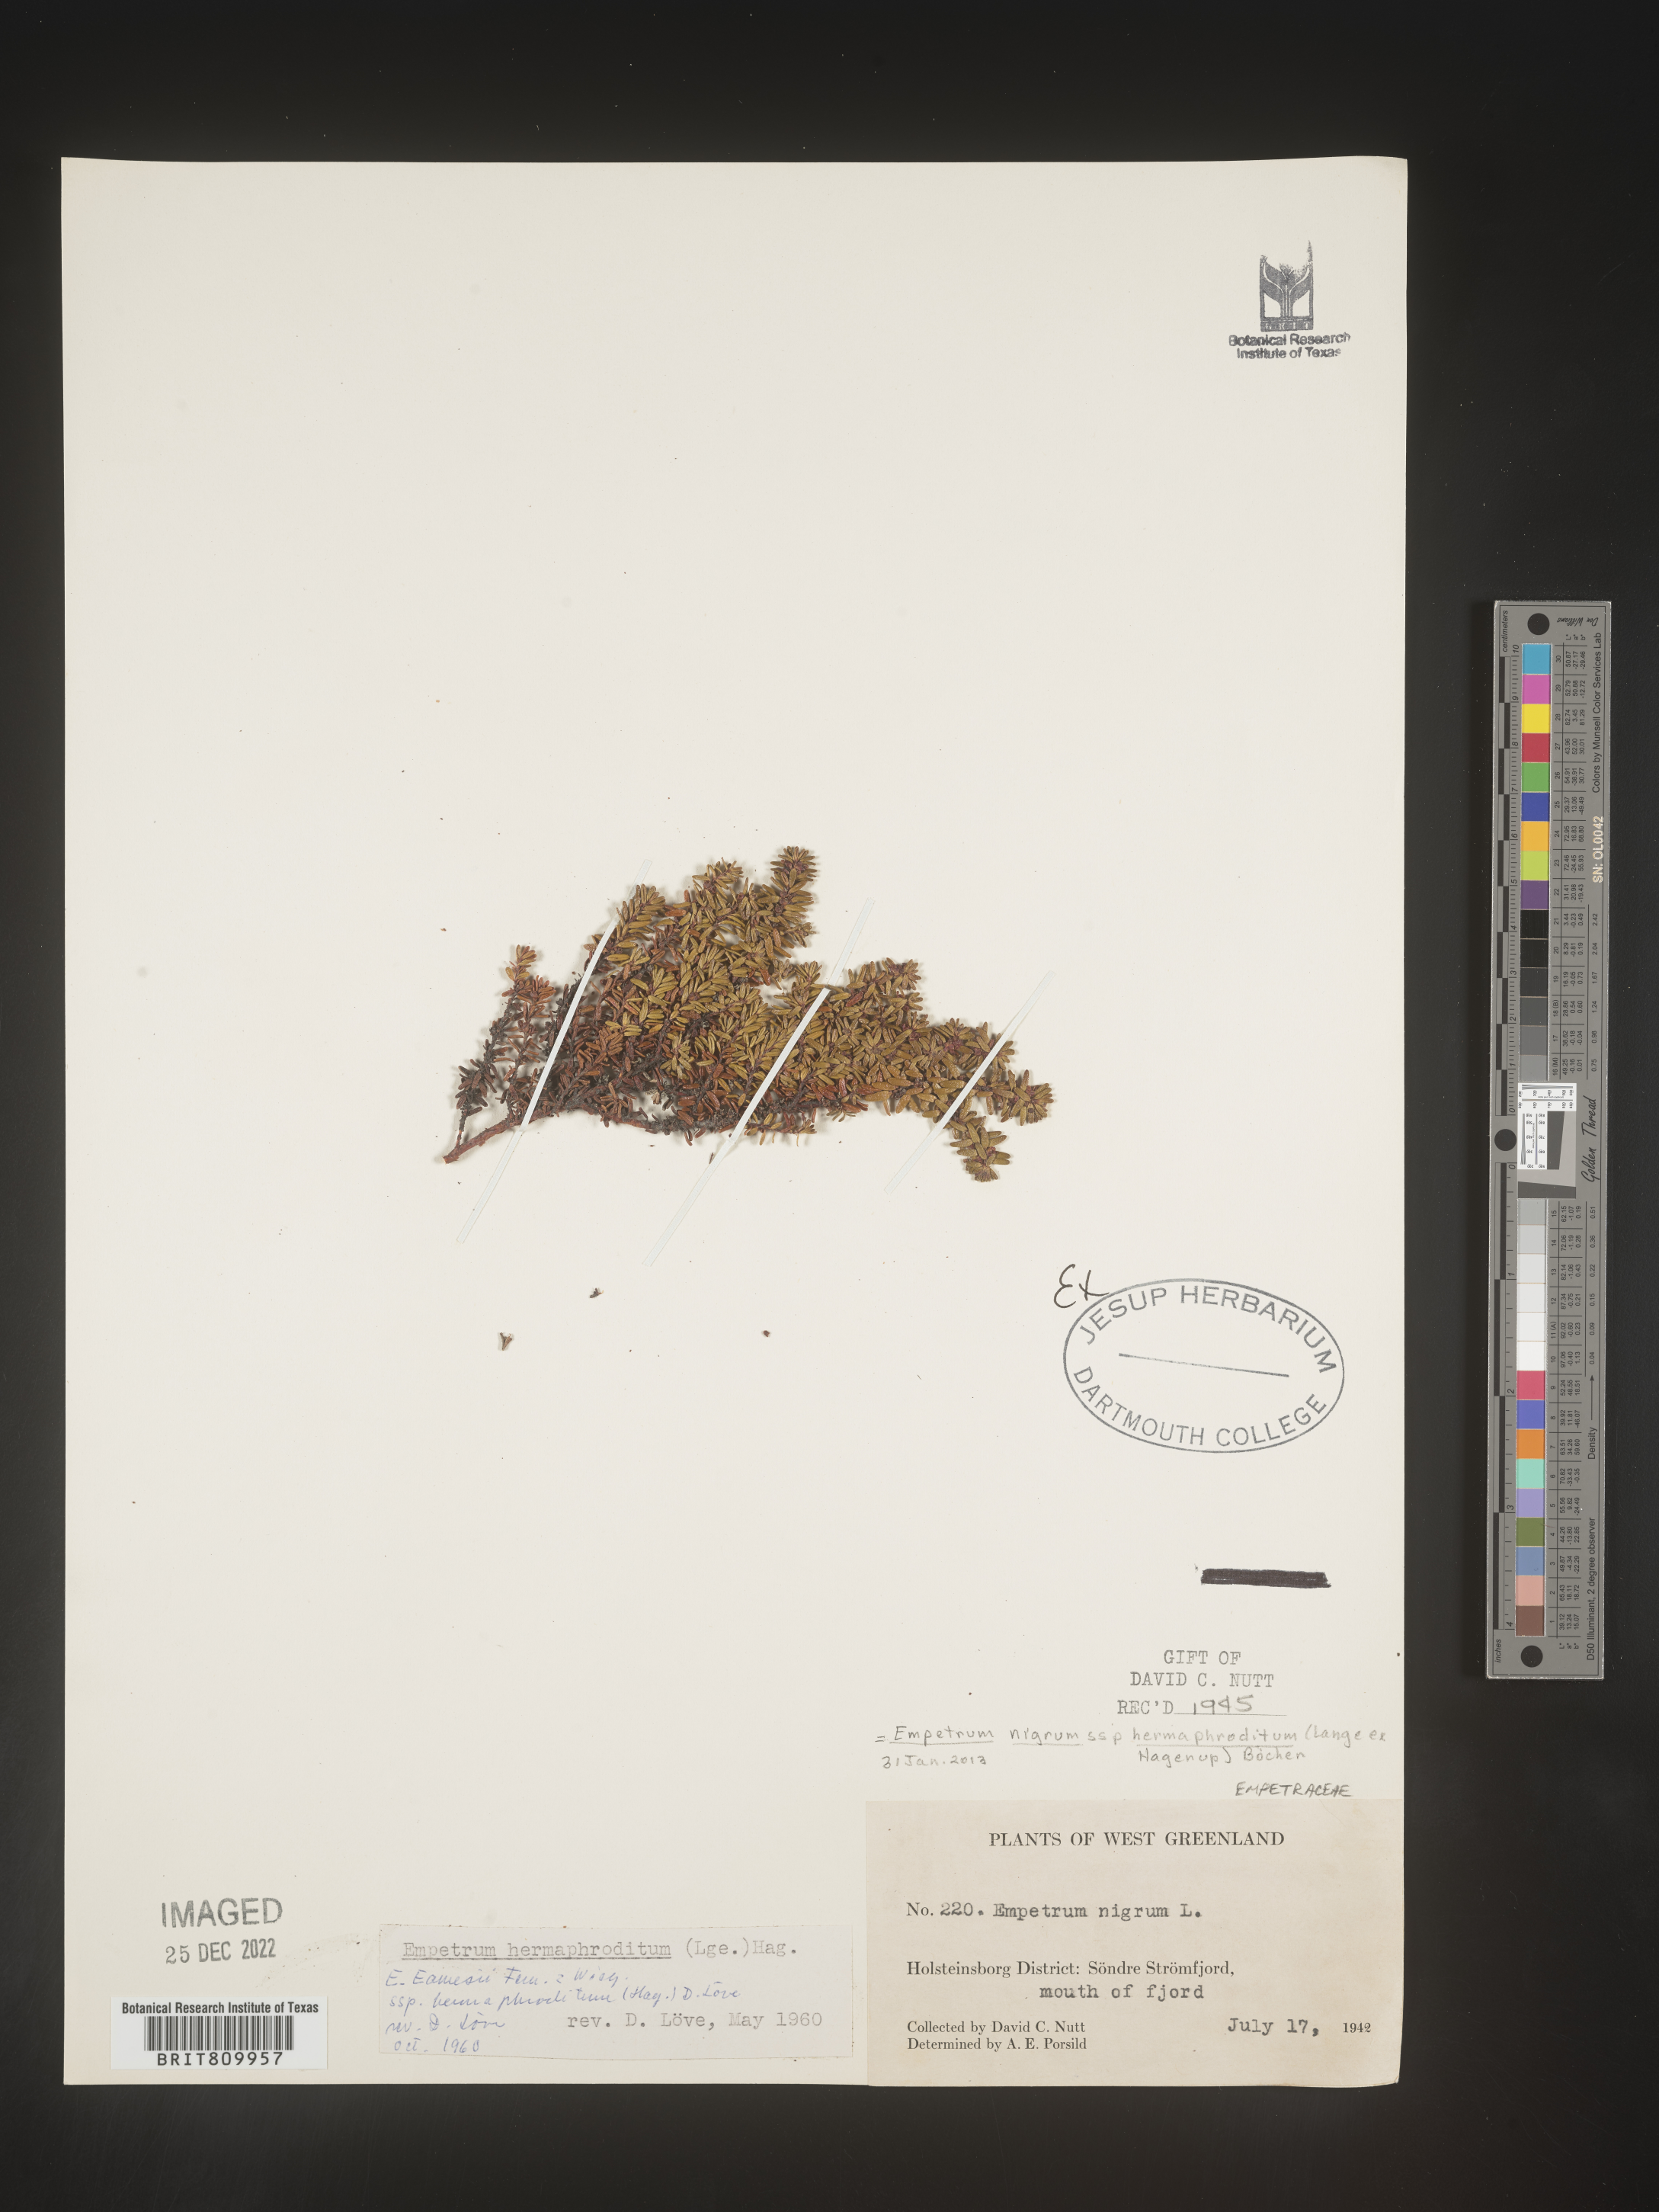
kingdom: Plantae
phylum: Tracheophyta
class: Magnoliopsida
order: Ericales
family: Ericaceae
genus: Empetrum
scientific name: Empetrum
